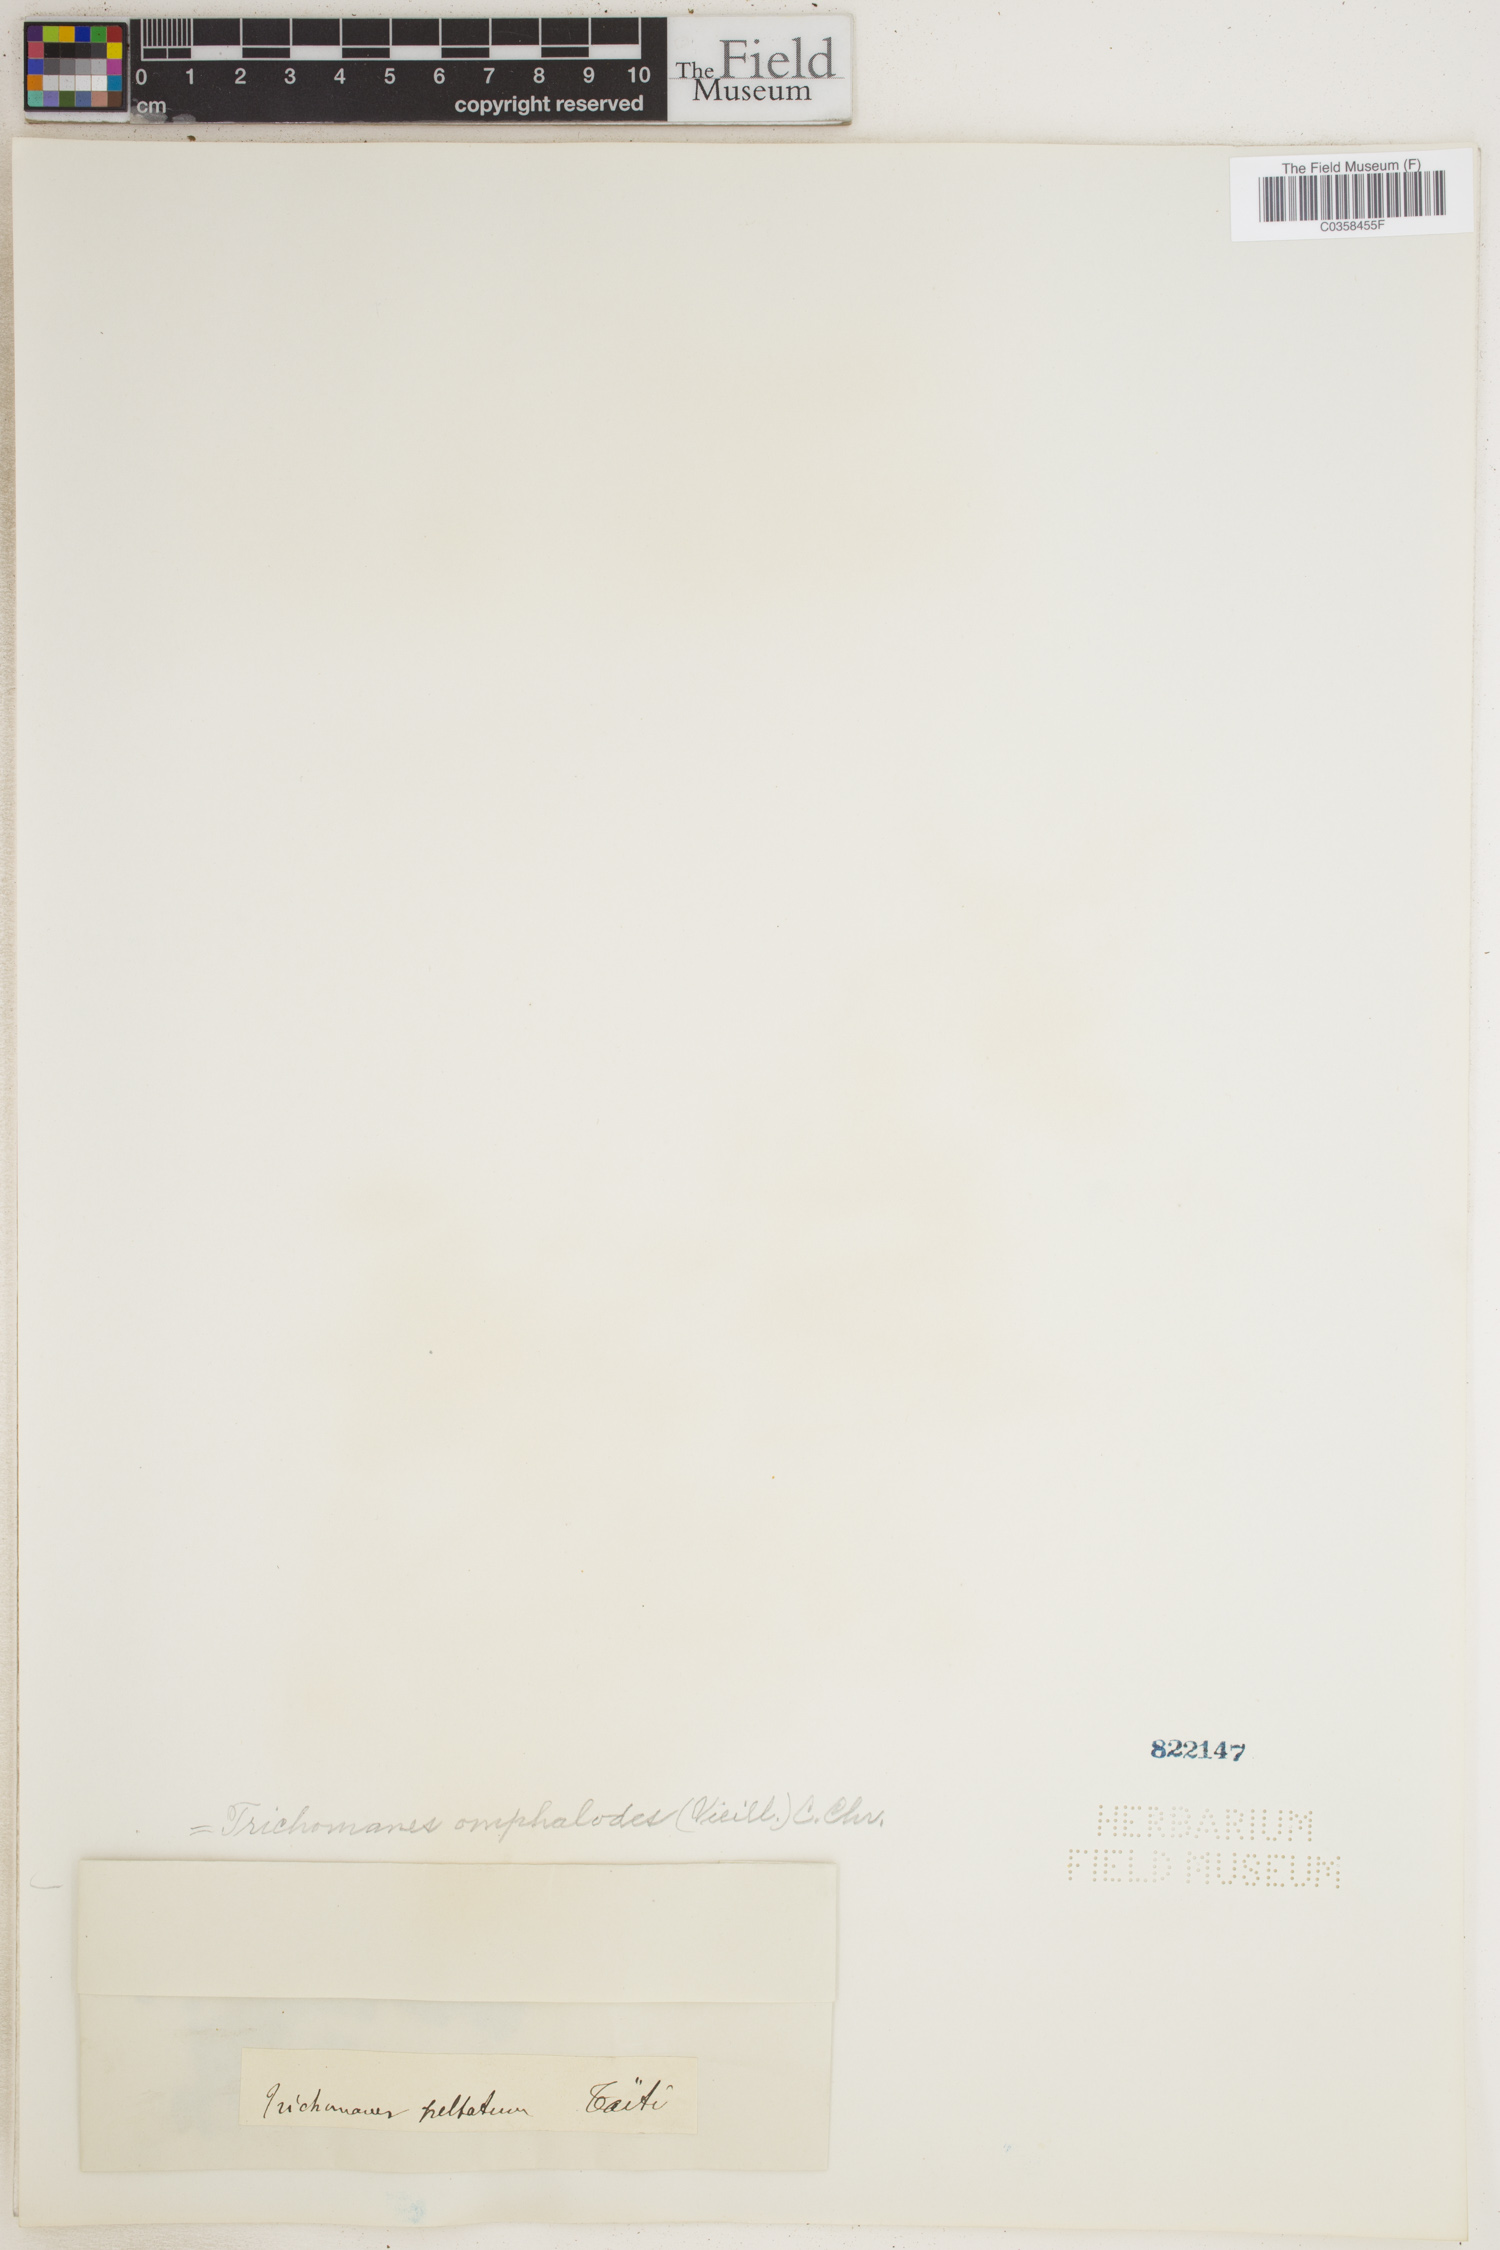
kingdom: Plantae
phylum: Tracheophyta
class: Polypodiopsida
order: Hymenophyllales
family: Hymenophyllaceae
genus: Didymoglossum
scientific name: Didymoglossum tahitense
